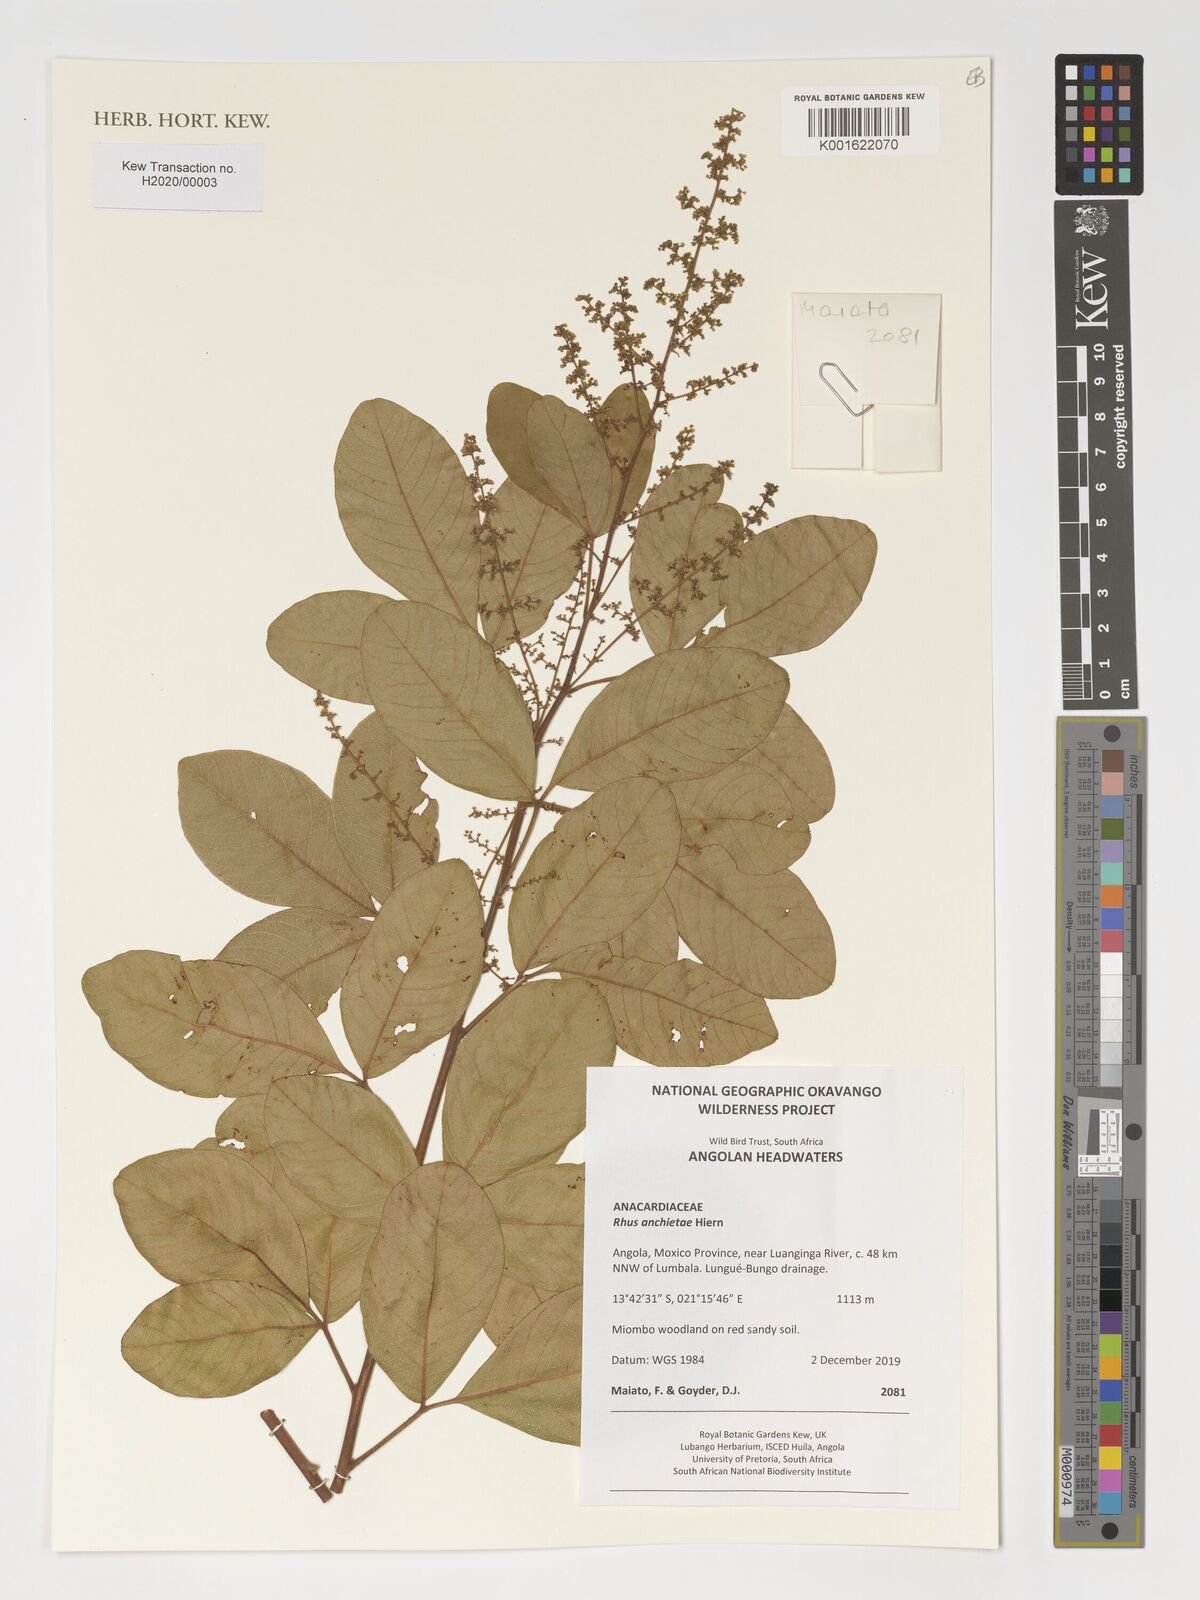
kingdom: Plantae
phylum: Tracheophyta
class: Magnoliopsida
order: Sapindales
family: Anacardiaceae
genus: Searsia
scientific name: Searsia anchietae
